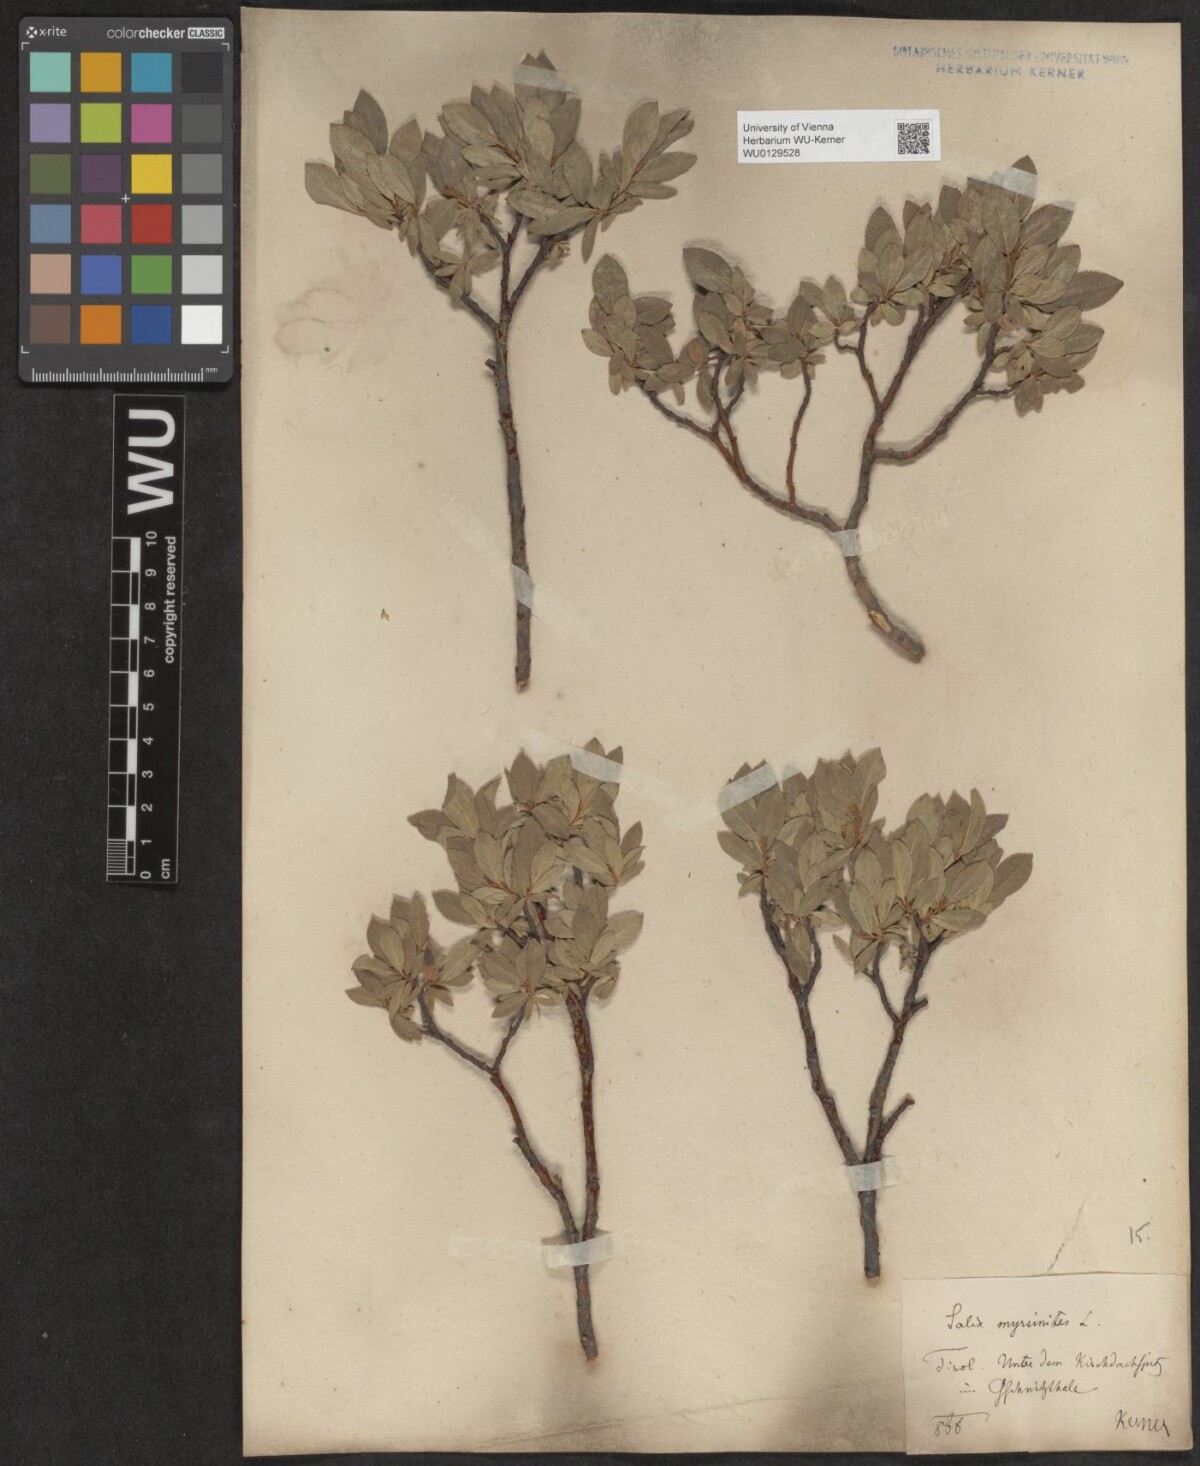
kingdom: Plantae
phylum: Tracheophyta
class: Magnoliopsida
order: Malpighiales
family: Salicaceae
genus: Salix
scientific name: Salix breviserrata
